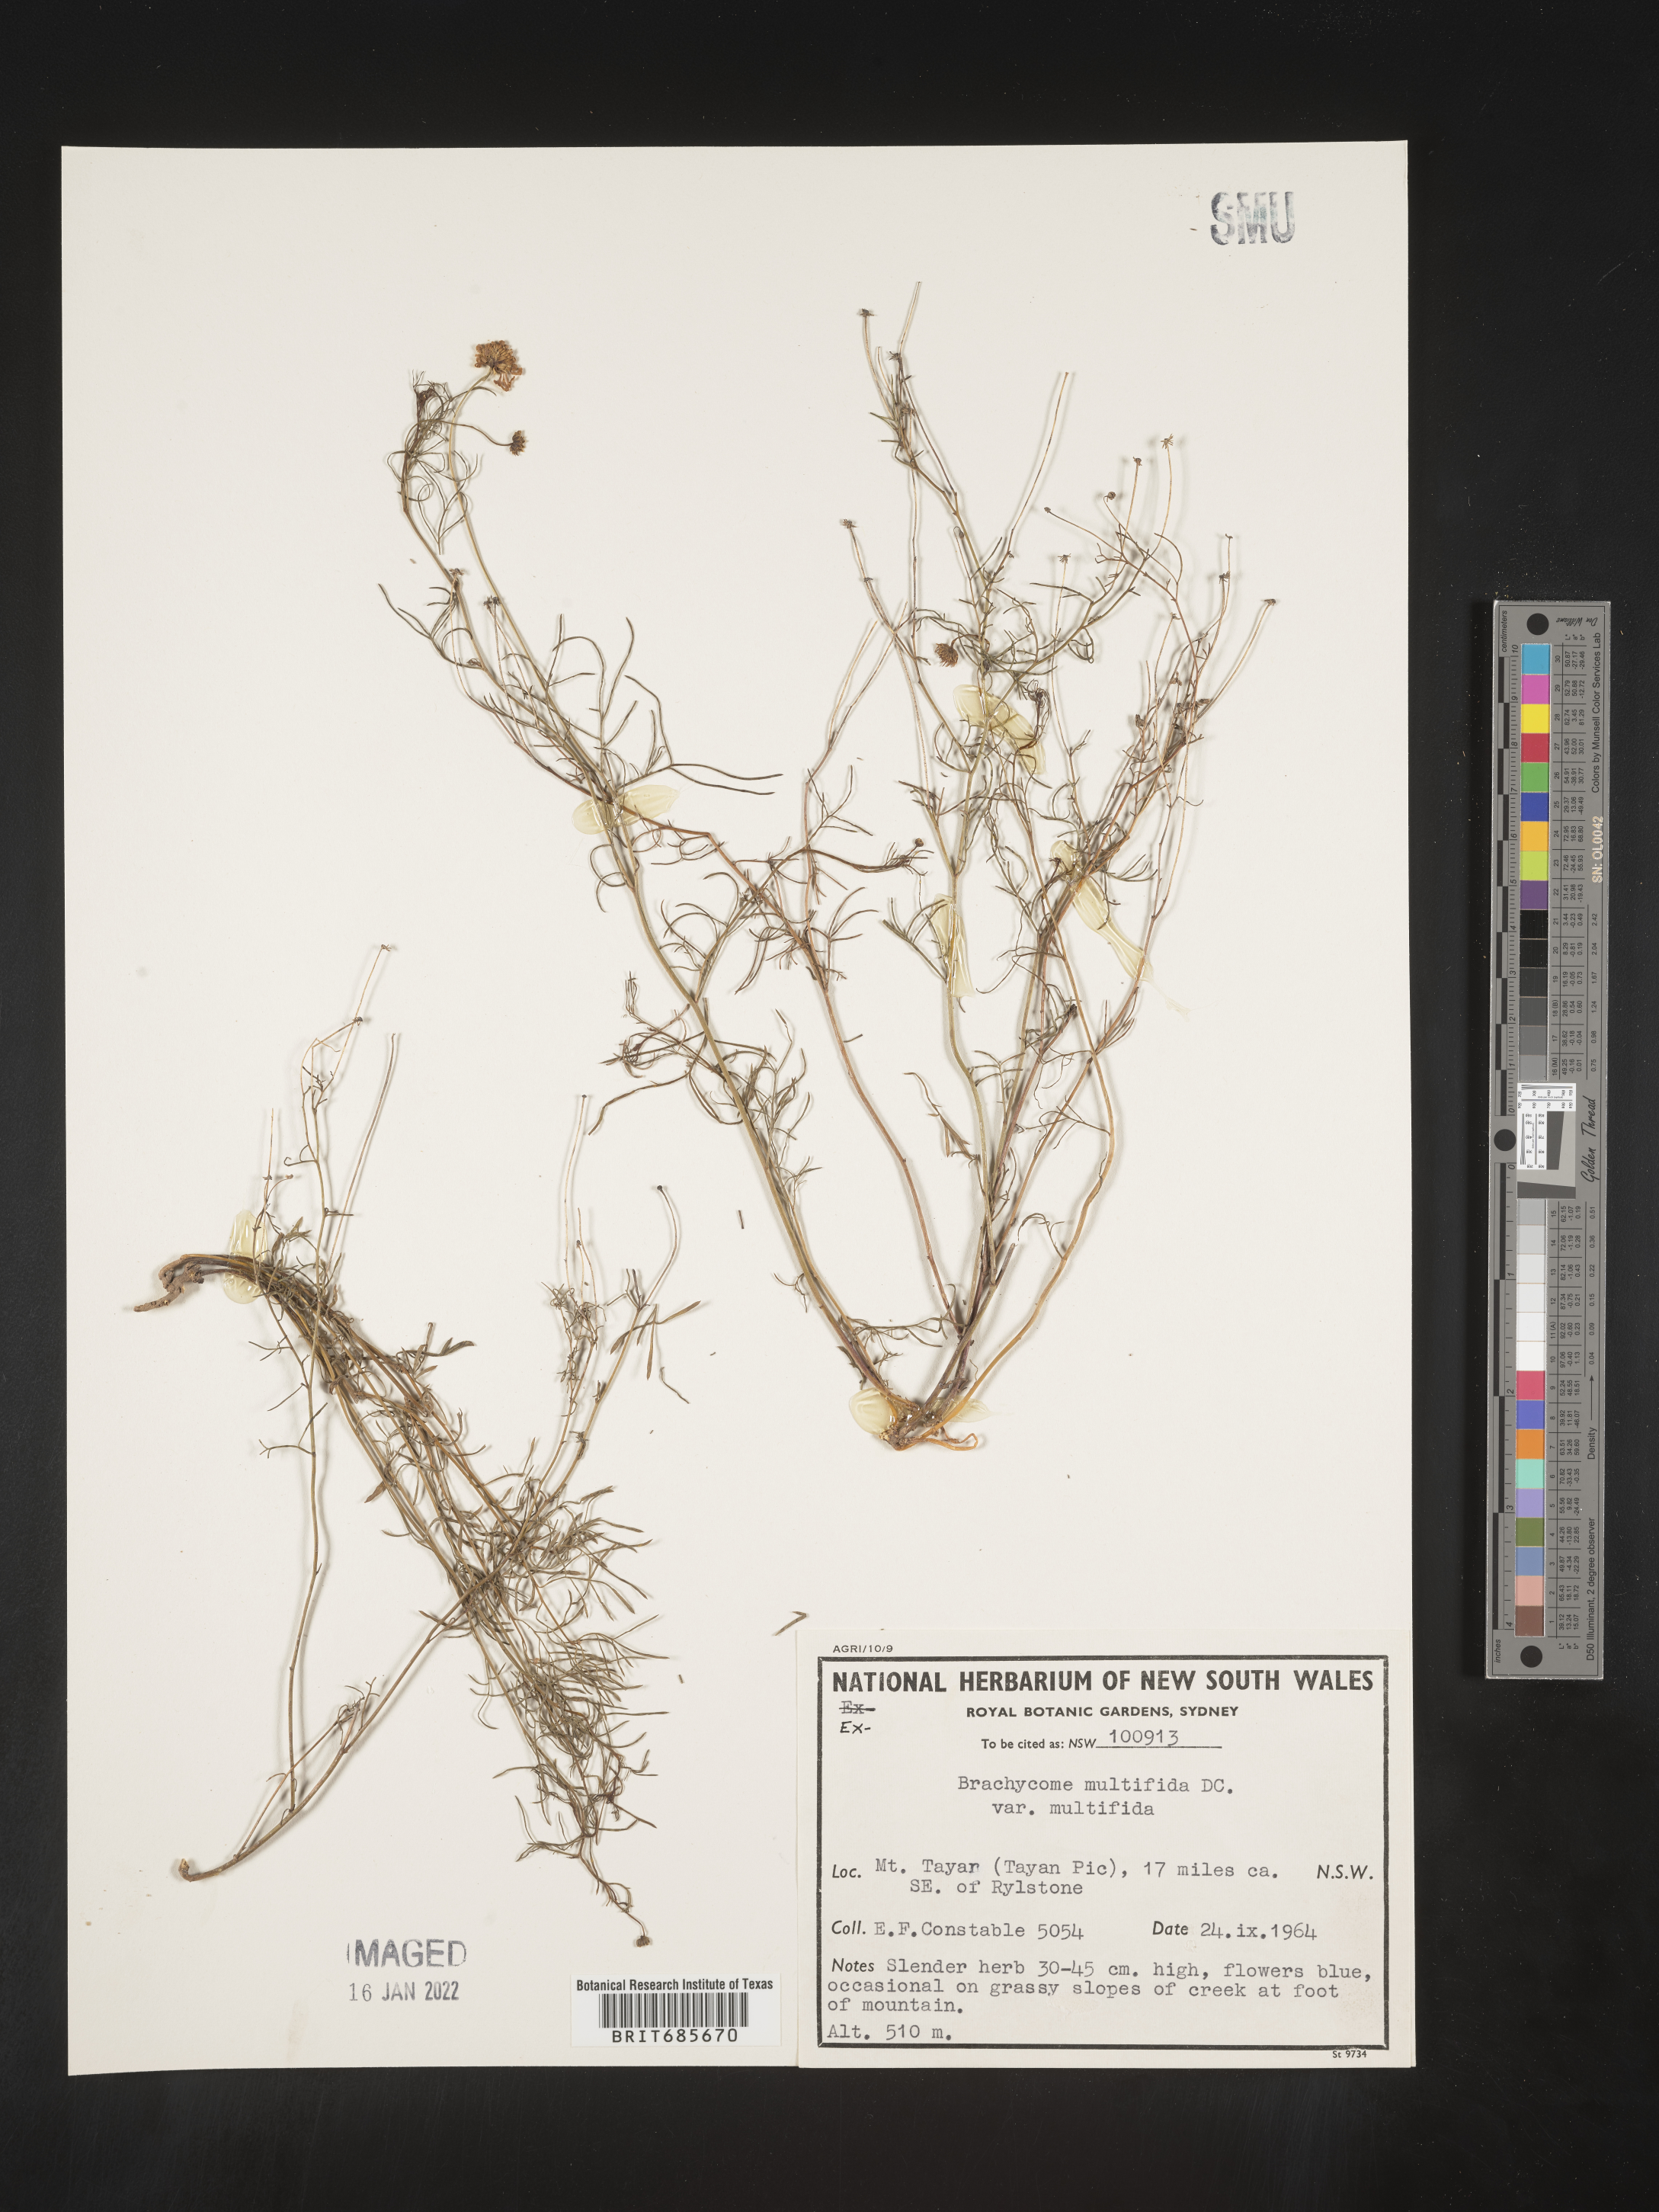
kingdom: Plantae
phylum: Tracheophyta
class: Magnoliopsida
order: Asterales
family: Asteraceae
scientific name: Asteraceae
